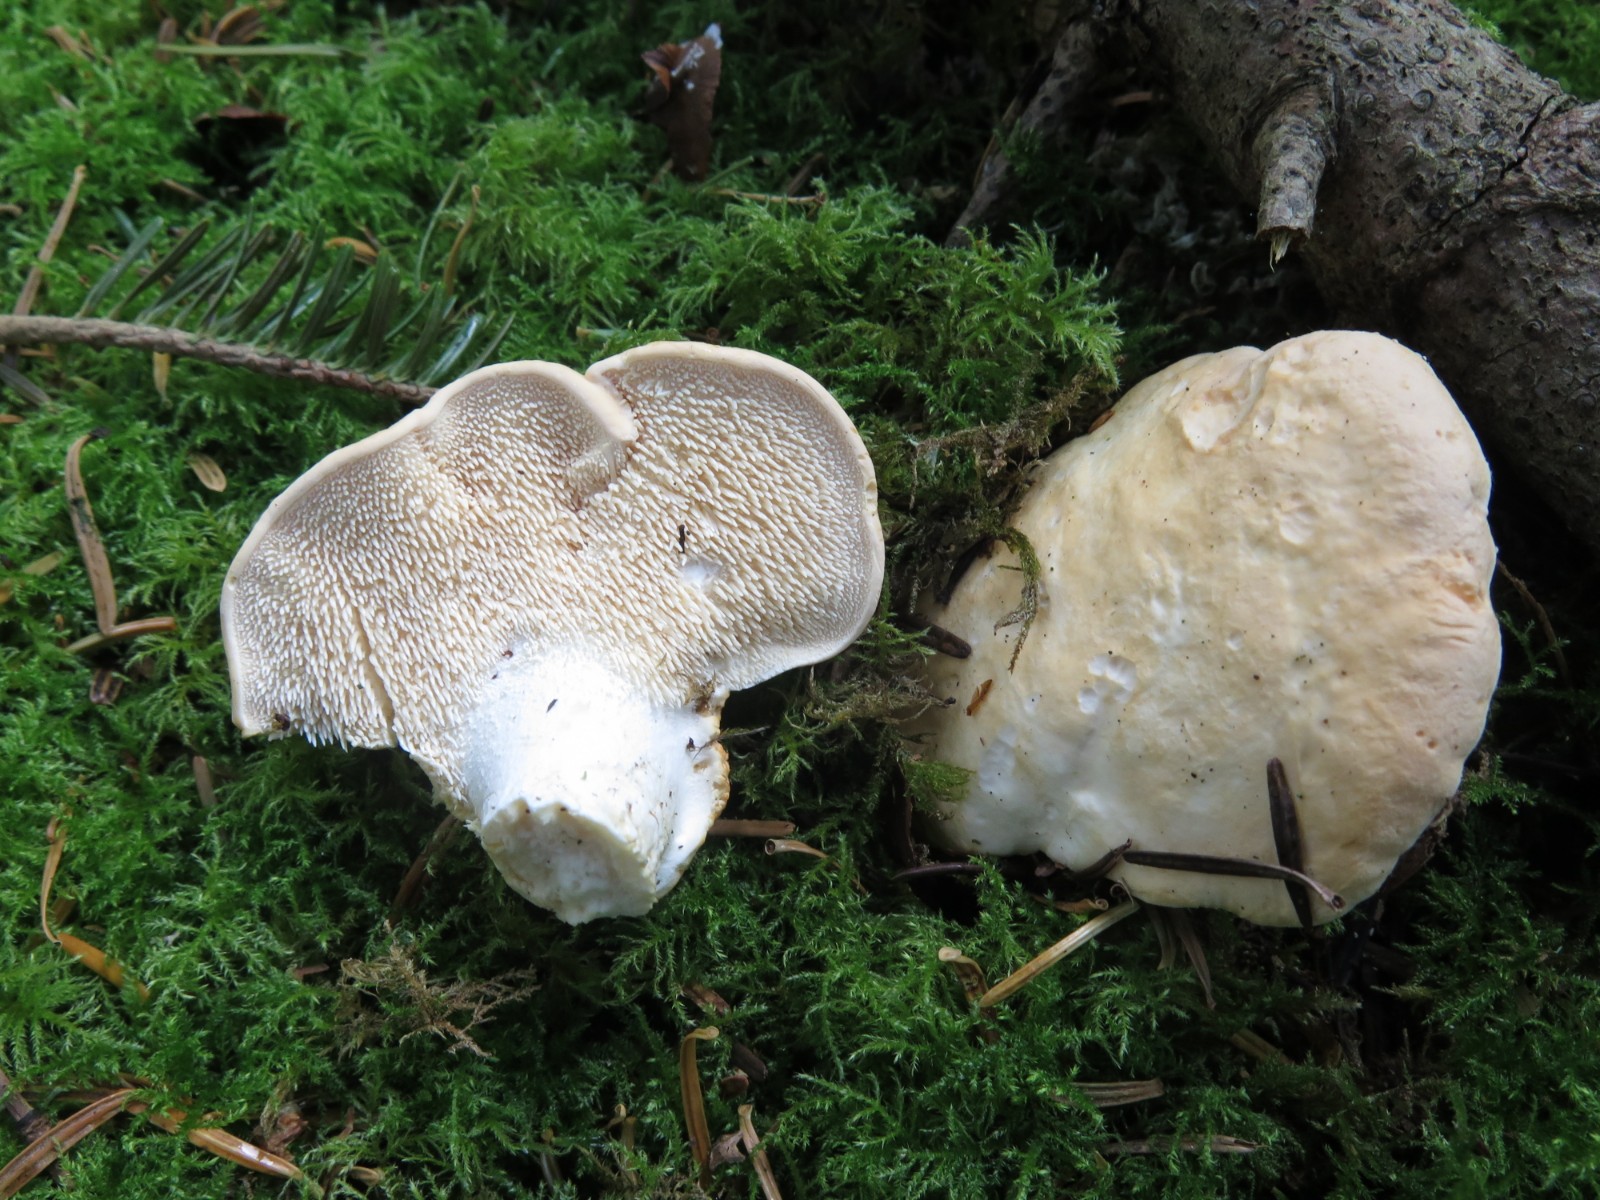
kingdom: Fungi
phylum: Basidiomycota
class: Agaricomycetes
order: Cantharellales
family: Hydnaceae
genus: Hydnum
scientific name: Hydnum repandum
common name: almindelig pigsvamp
